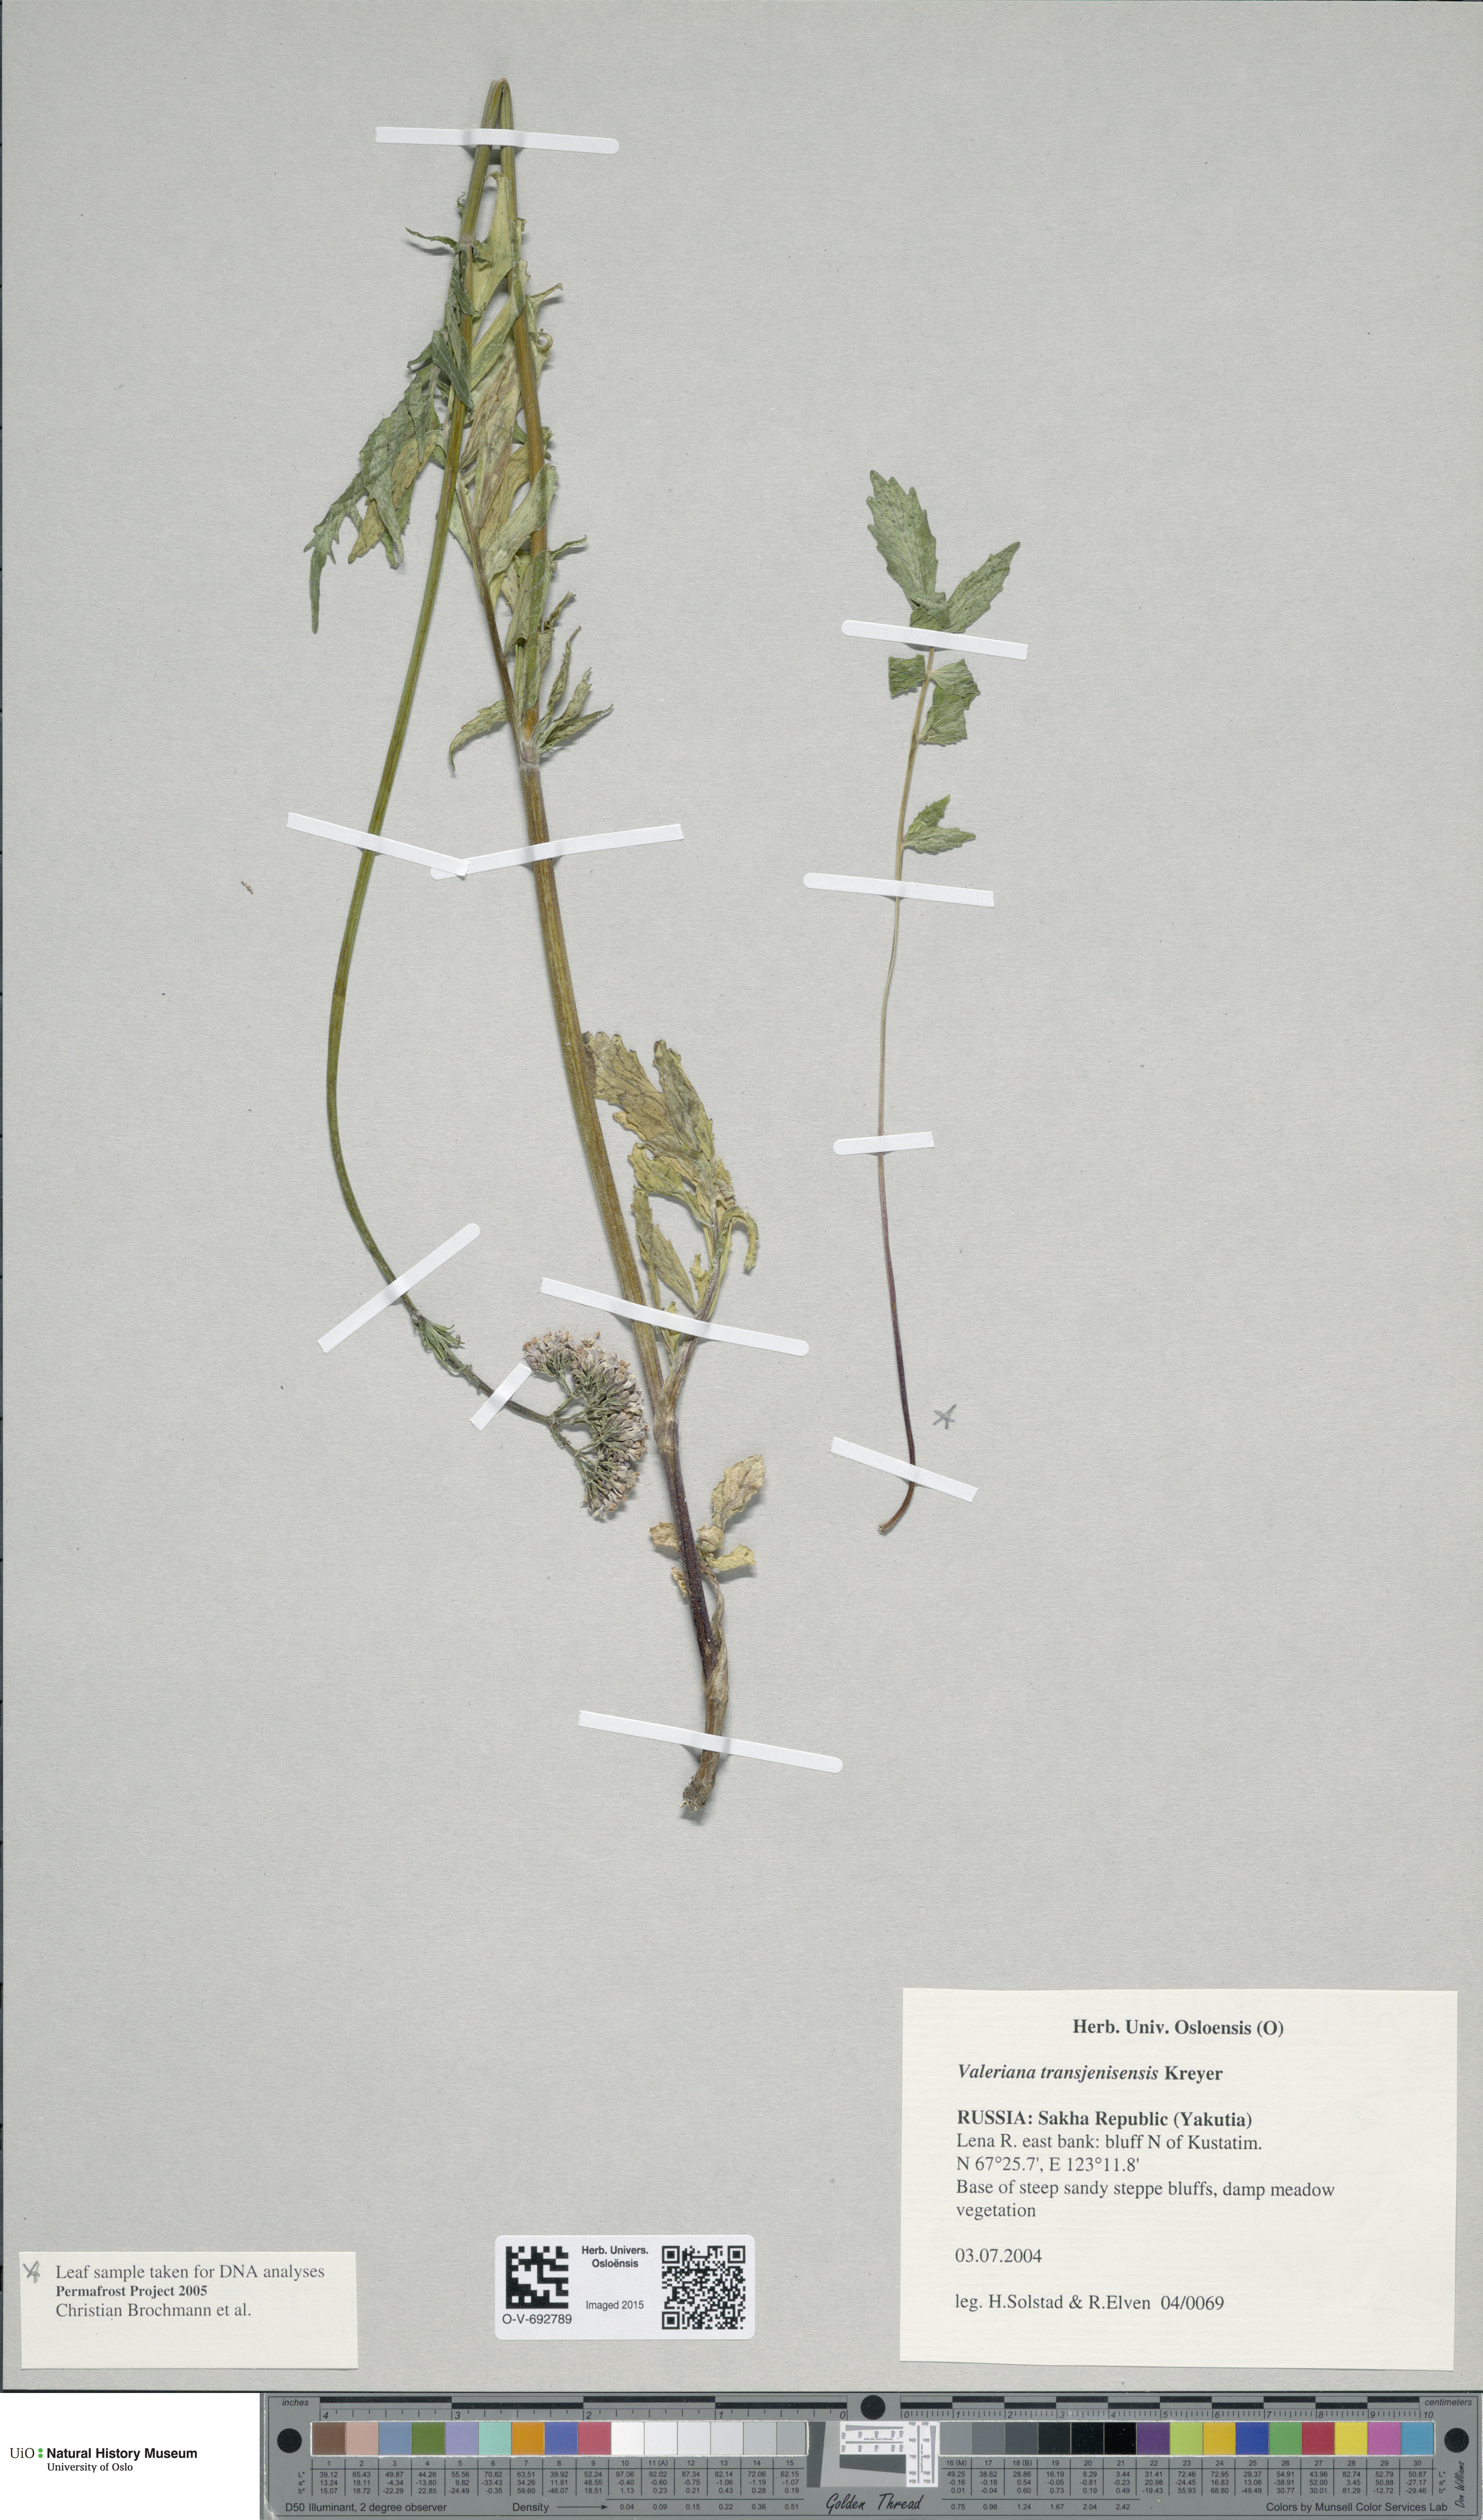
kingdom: Plantae
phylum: Tracheophyta
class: Magnoliopsida
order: Dipsacales
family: Caprifoliaceae
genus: Valeriana
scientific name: Valeriana transjenisensis
